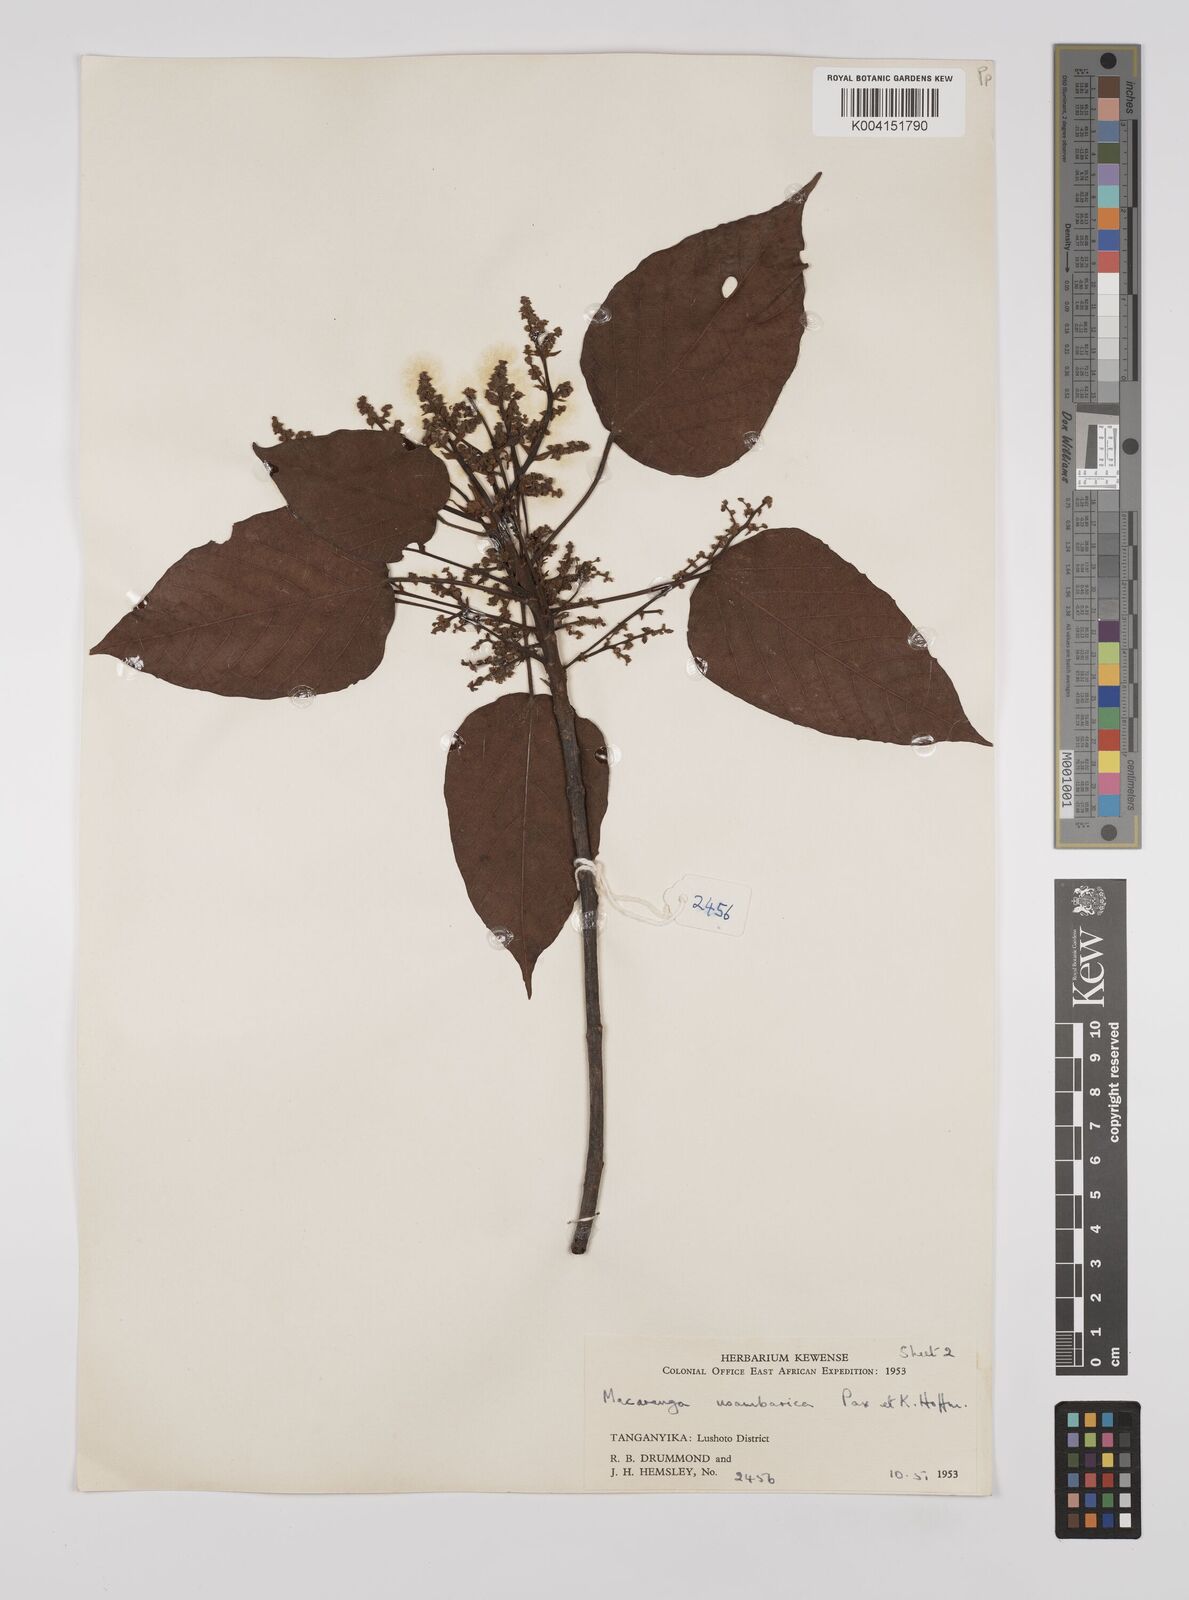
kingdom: Plantae
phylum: Tracheophyta
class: Magnoliopsida
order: Malpighiales
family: Euphorbiaceae
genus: Macaranga
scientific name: Macaranga capensis
